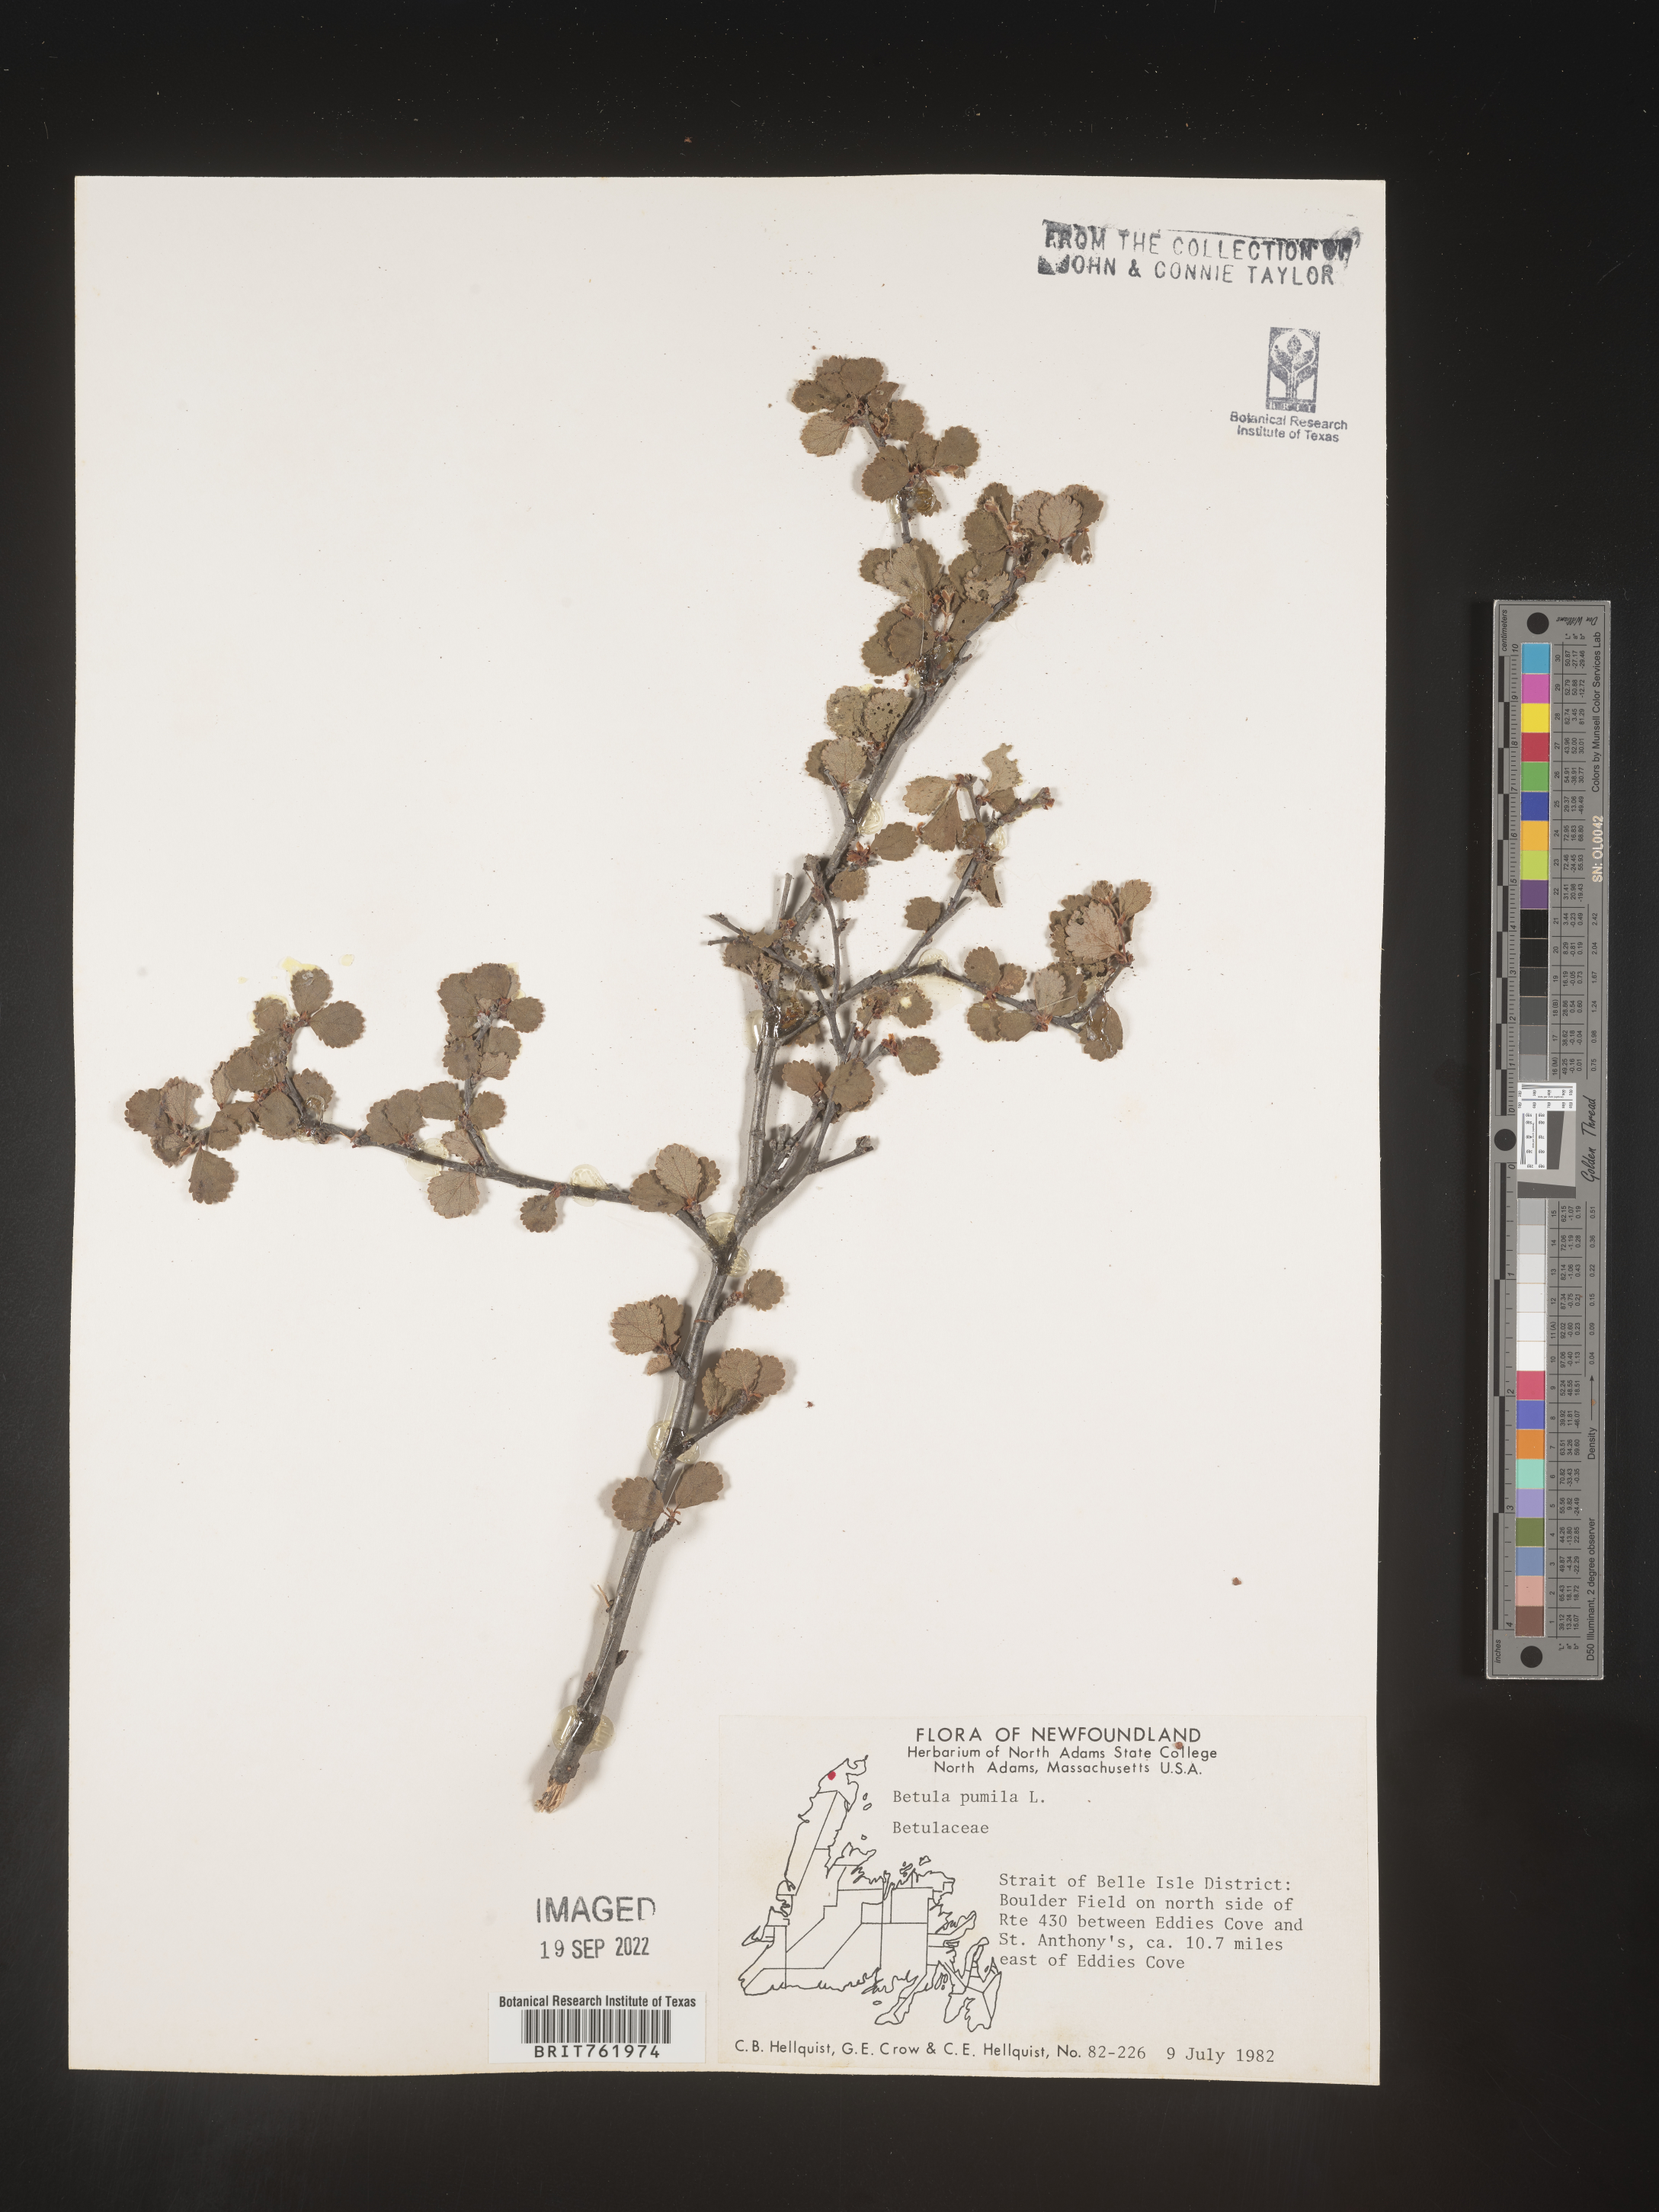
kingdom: Plantae
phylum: Tracheophyta
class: Magnoliopsida
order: Fagales
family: Betulaceae
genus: Betula
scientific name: Betula pumila
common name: Bog birch
